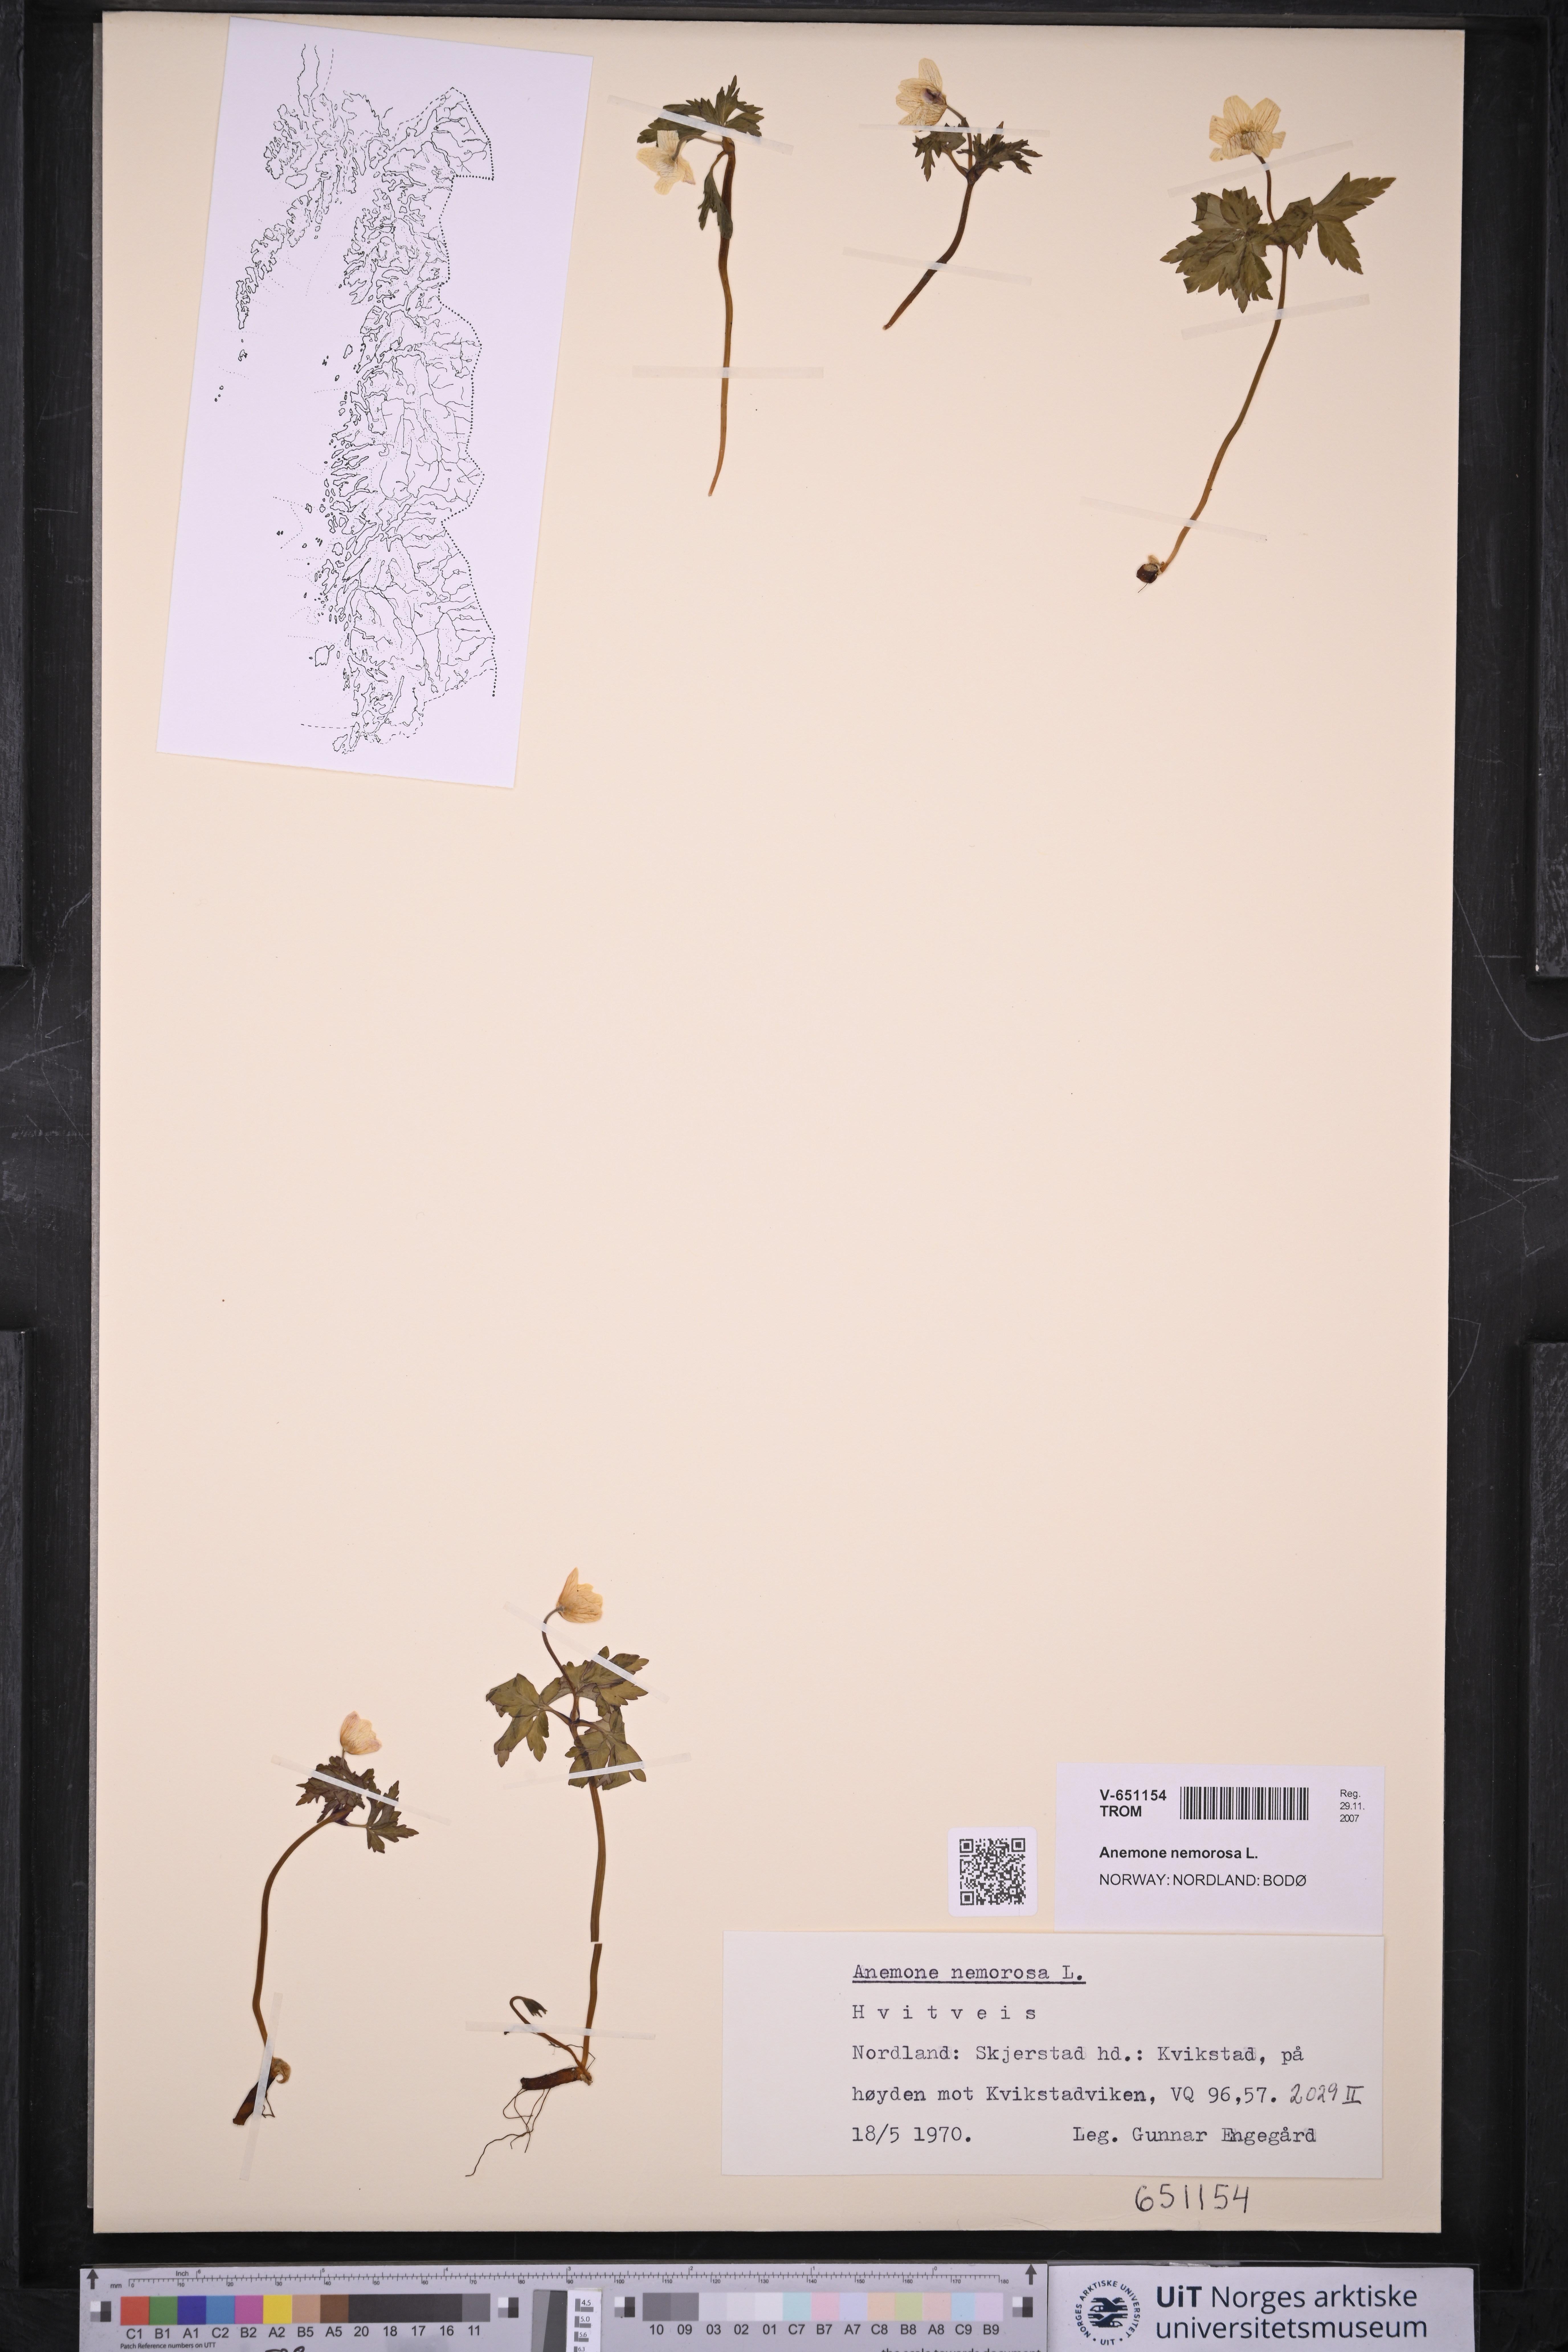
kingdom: Plantae
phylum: Tracheophyta
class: Magnoliopsida
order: Ranunculales
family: Ranunculaceae
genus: Anemone
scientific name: Anemone nemorosa
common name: Wood anemone
